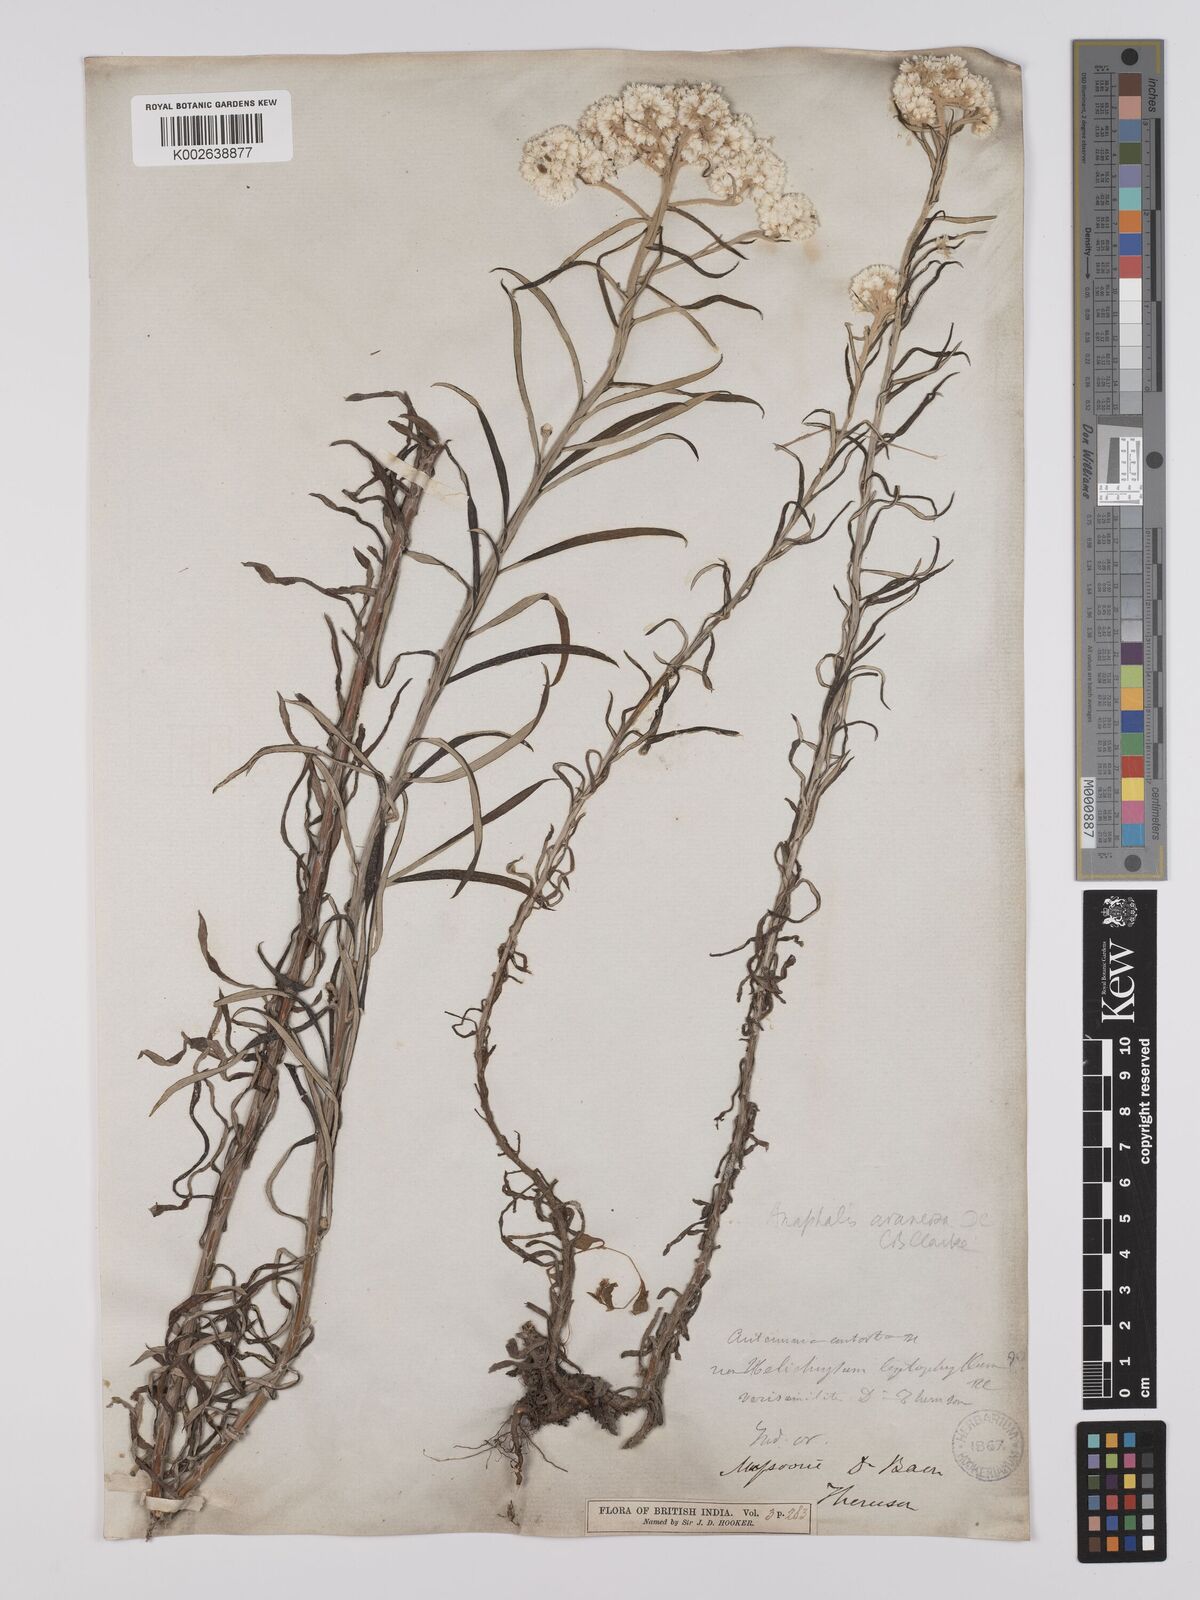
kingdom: Plantae
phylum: Tracheophyta
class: Magnoliopsida
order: Asterales
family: Asteraceae
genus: Anaphalis
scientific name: Anaphalis busua
